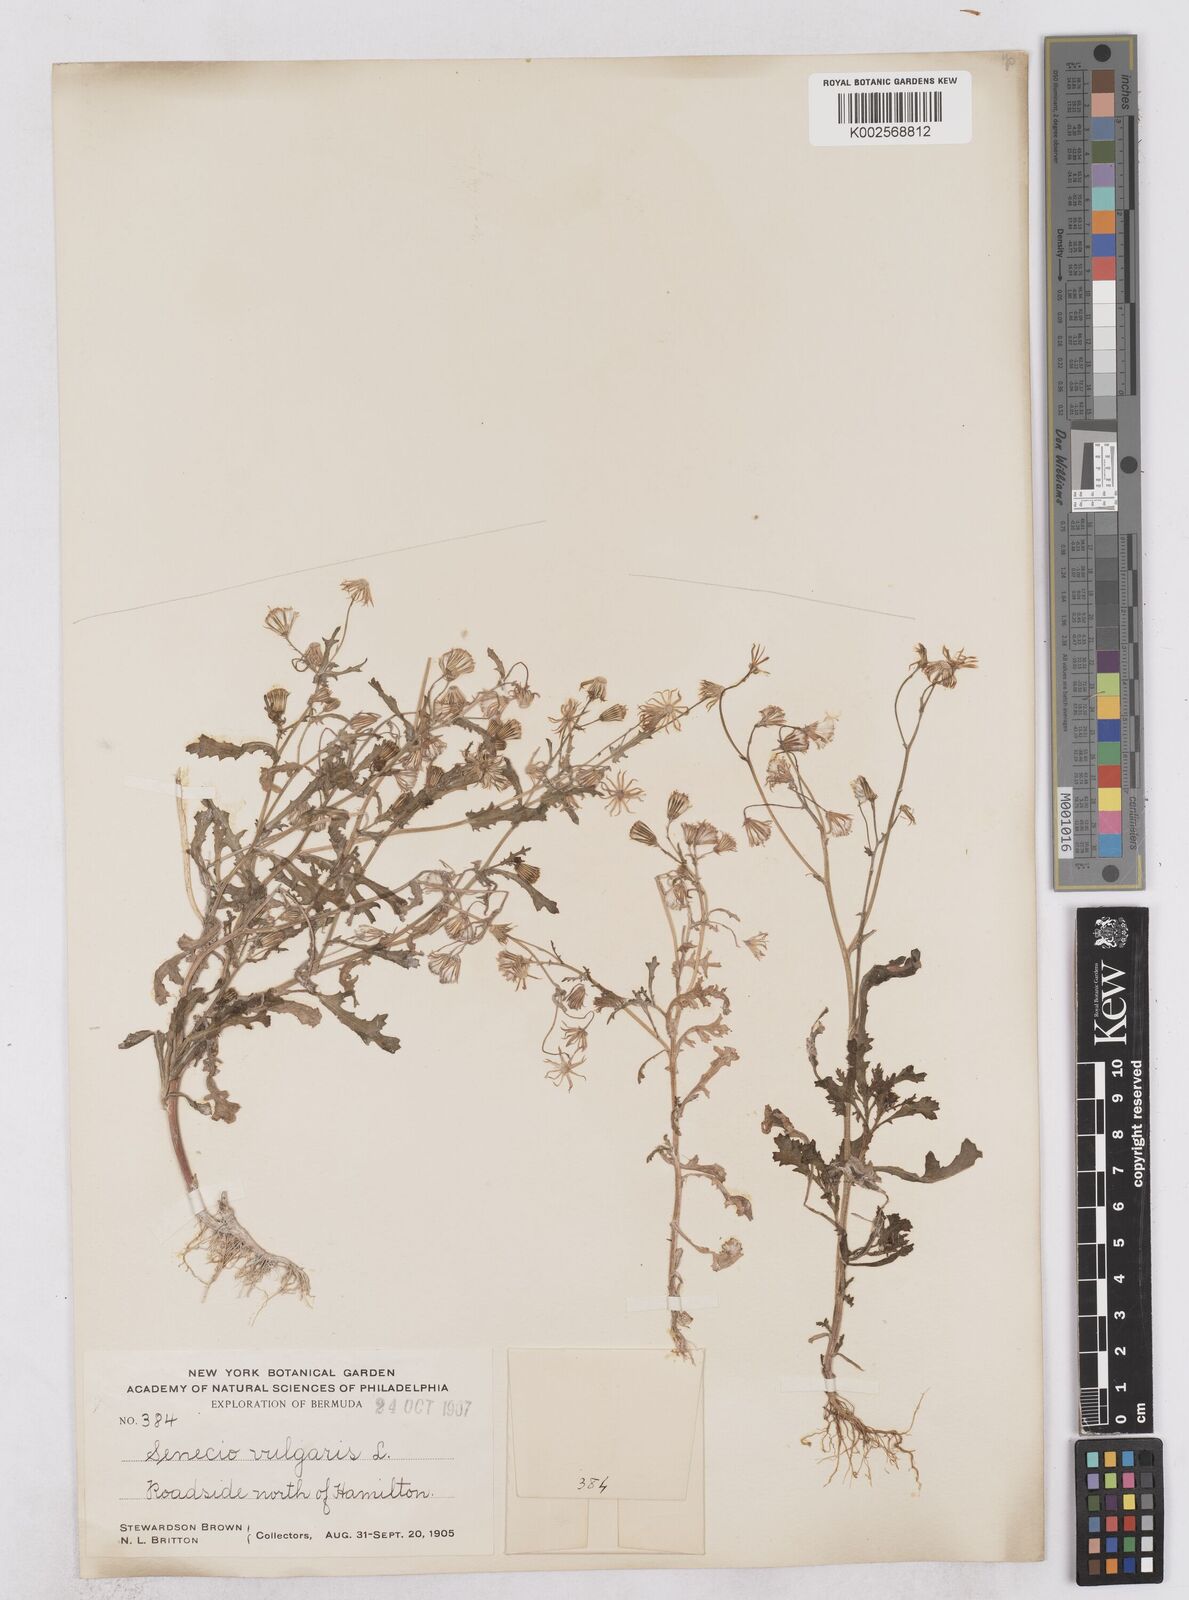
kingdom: Plantae
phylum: Tracheophyta
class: Magnoliopsida
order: Asterales
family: Asteraceae
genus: Senecio
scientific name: Senecio vulgaris
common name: Old-man-in-the-spring
